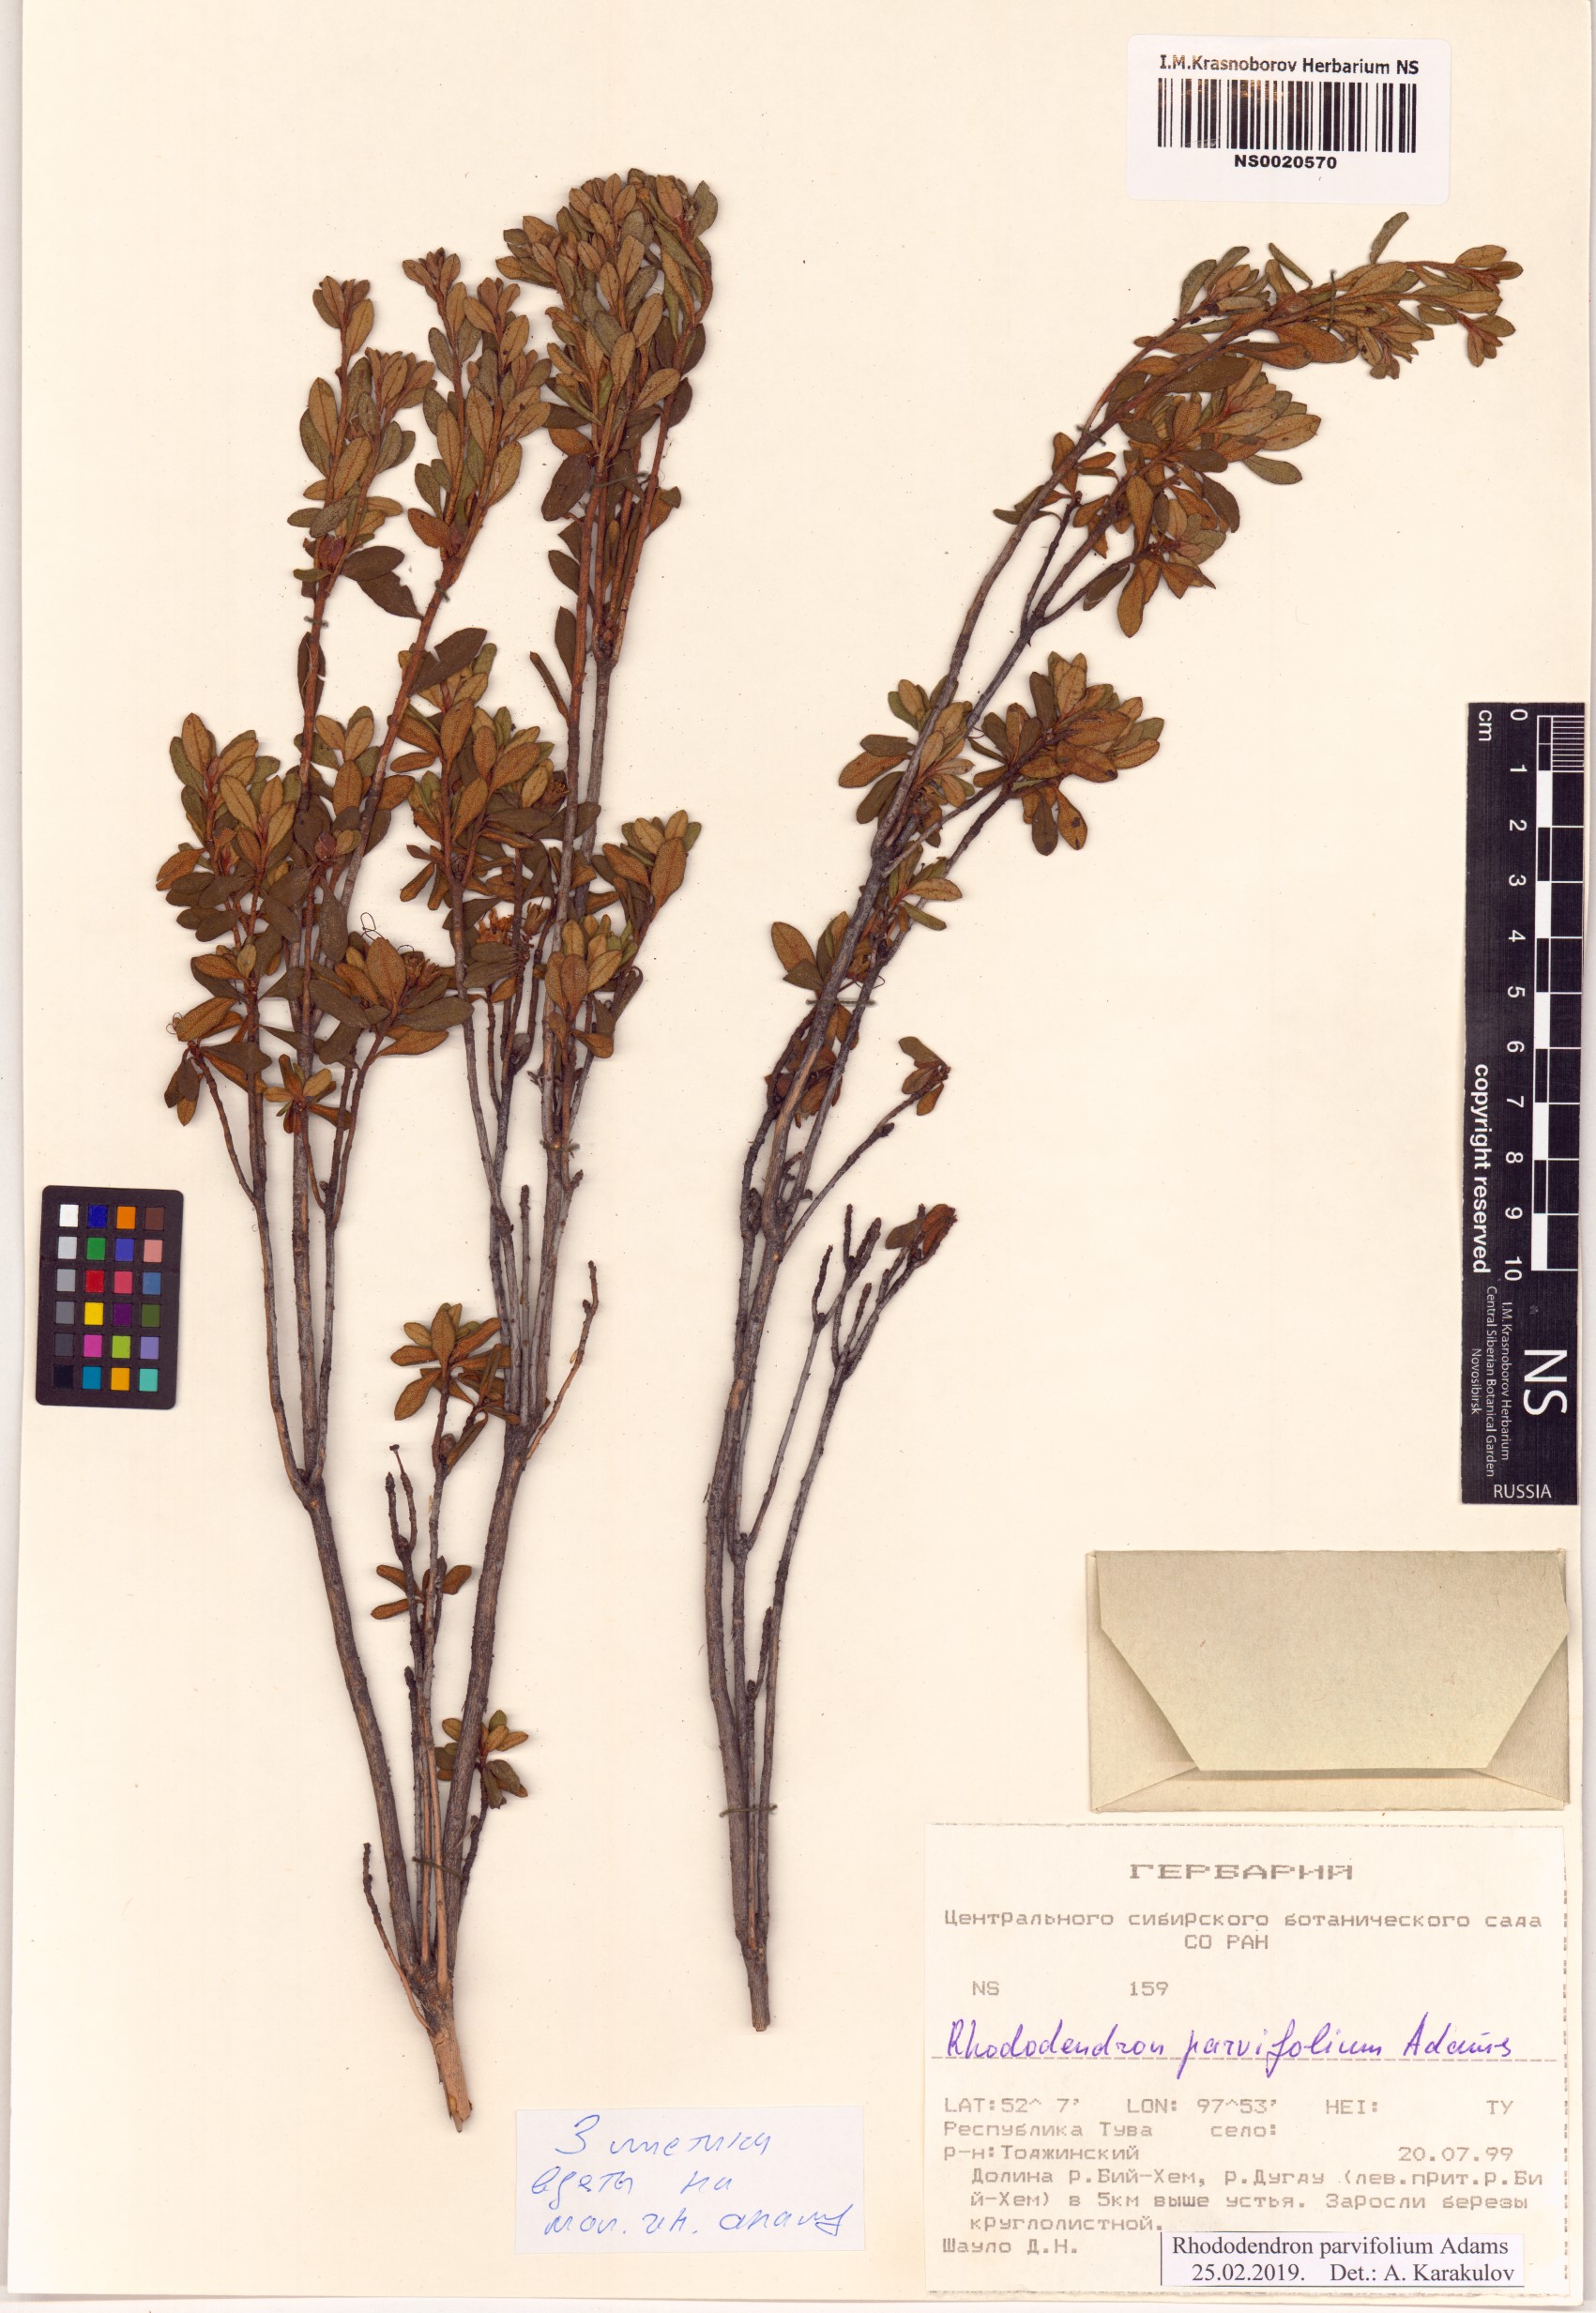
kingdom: Plantae
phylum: Tracheophyta
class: Magnoliopsida
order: Ericales
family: Ericaceae
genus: Rhododendron
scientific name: Rhododendron parvifolium
